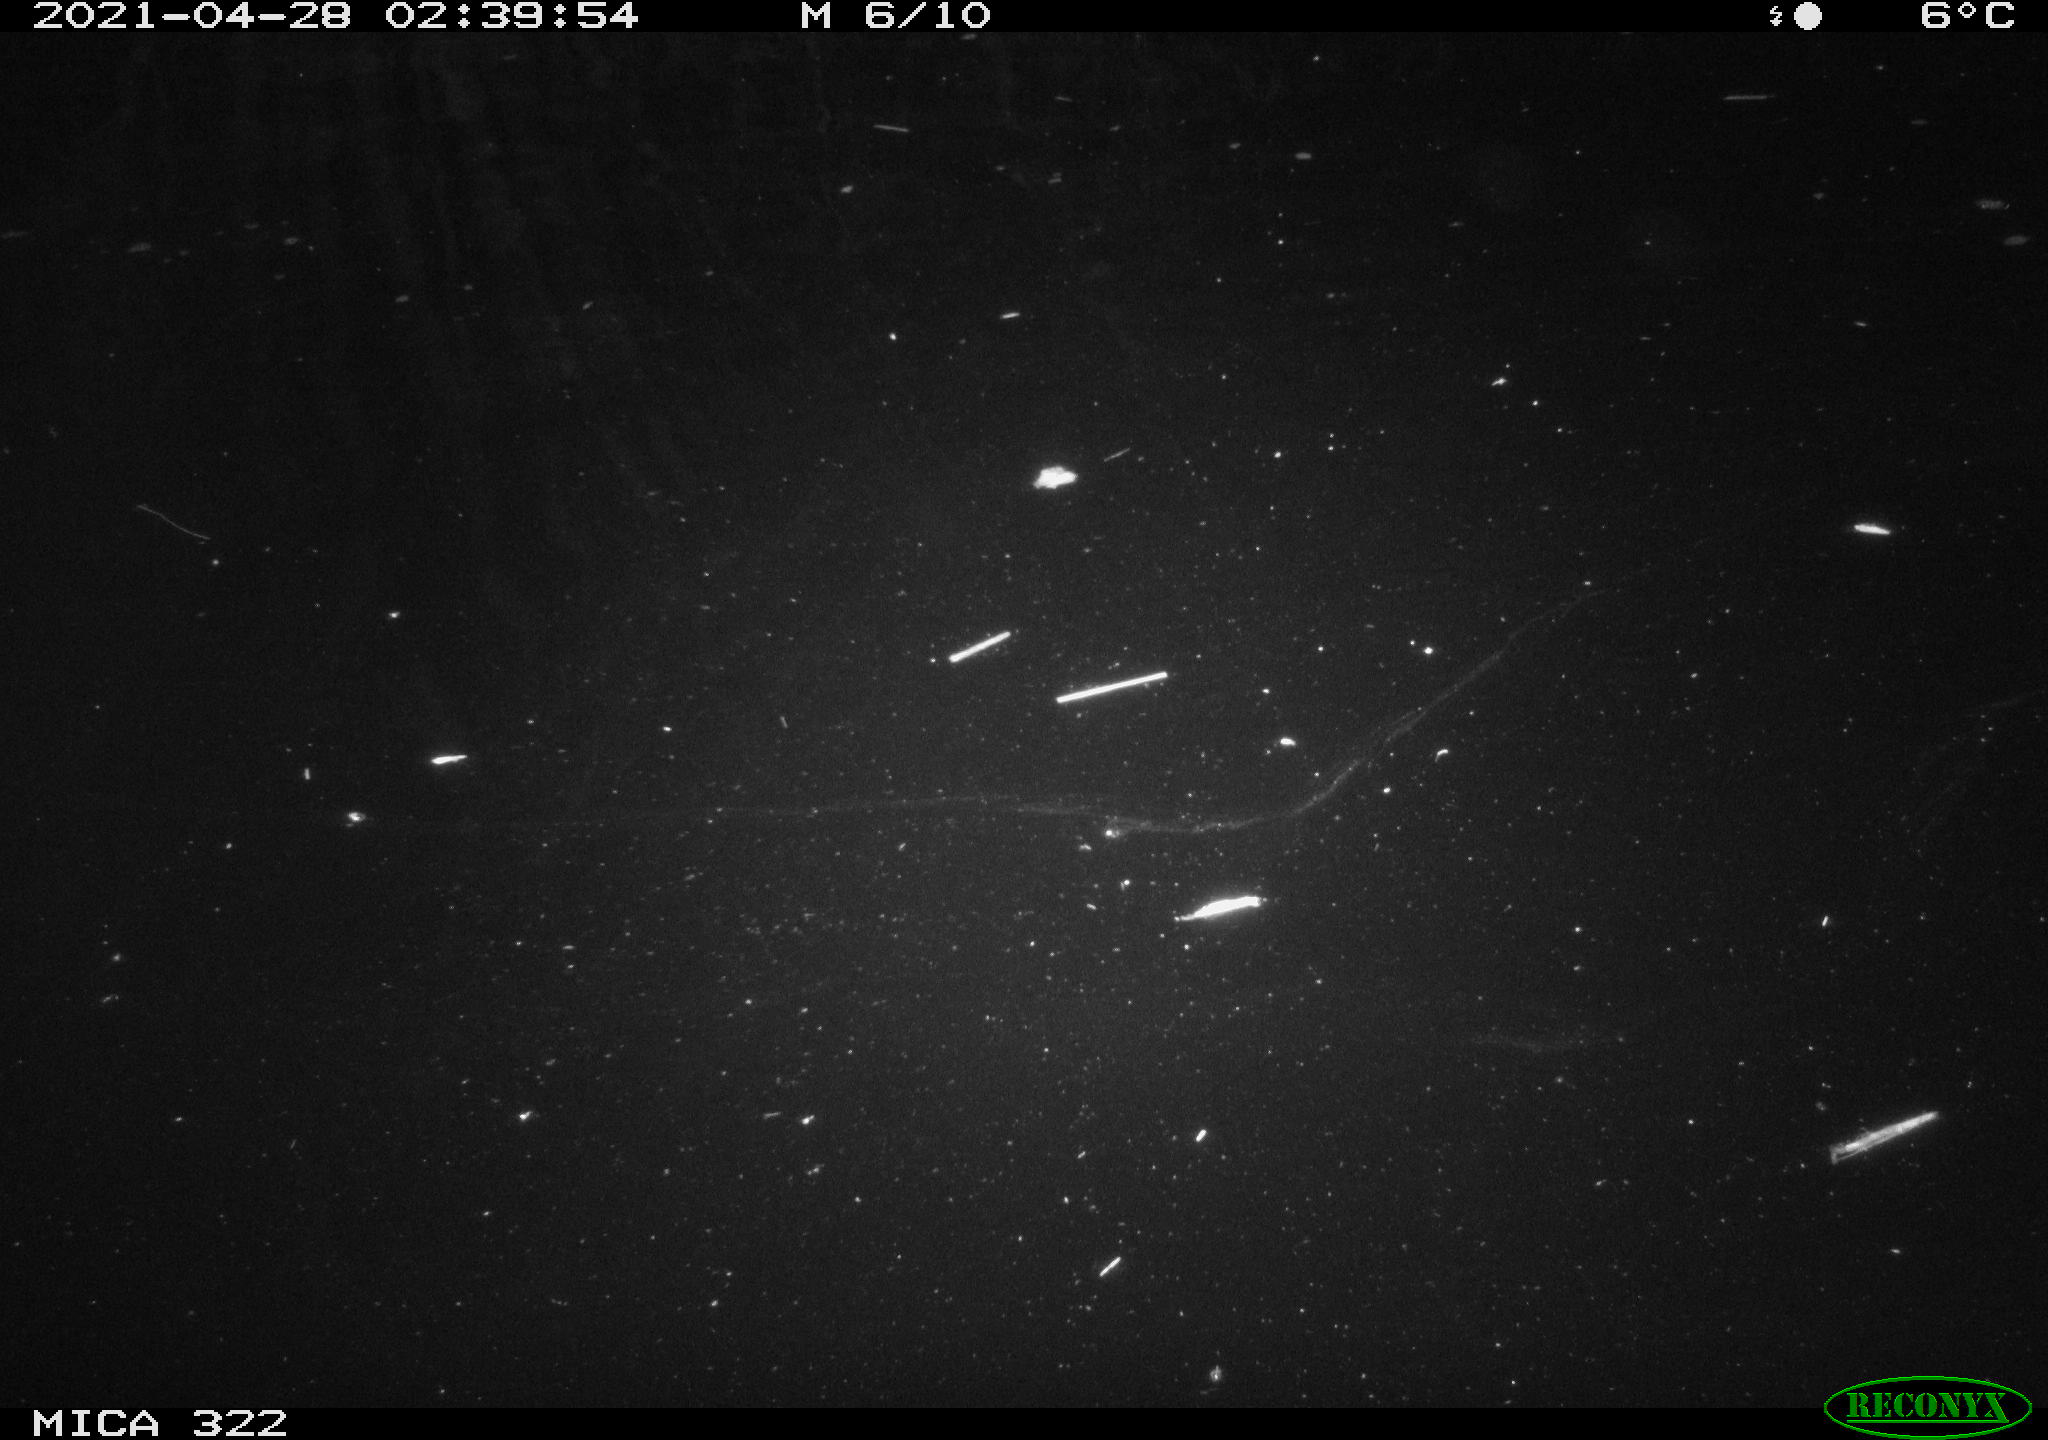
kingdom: Animalia
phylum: Chordata
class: Aves
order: Anseriformes
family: Anatidae
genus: Mareca
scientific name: Mareca strepera
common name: Gadwall
